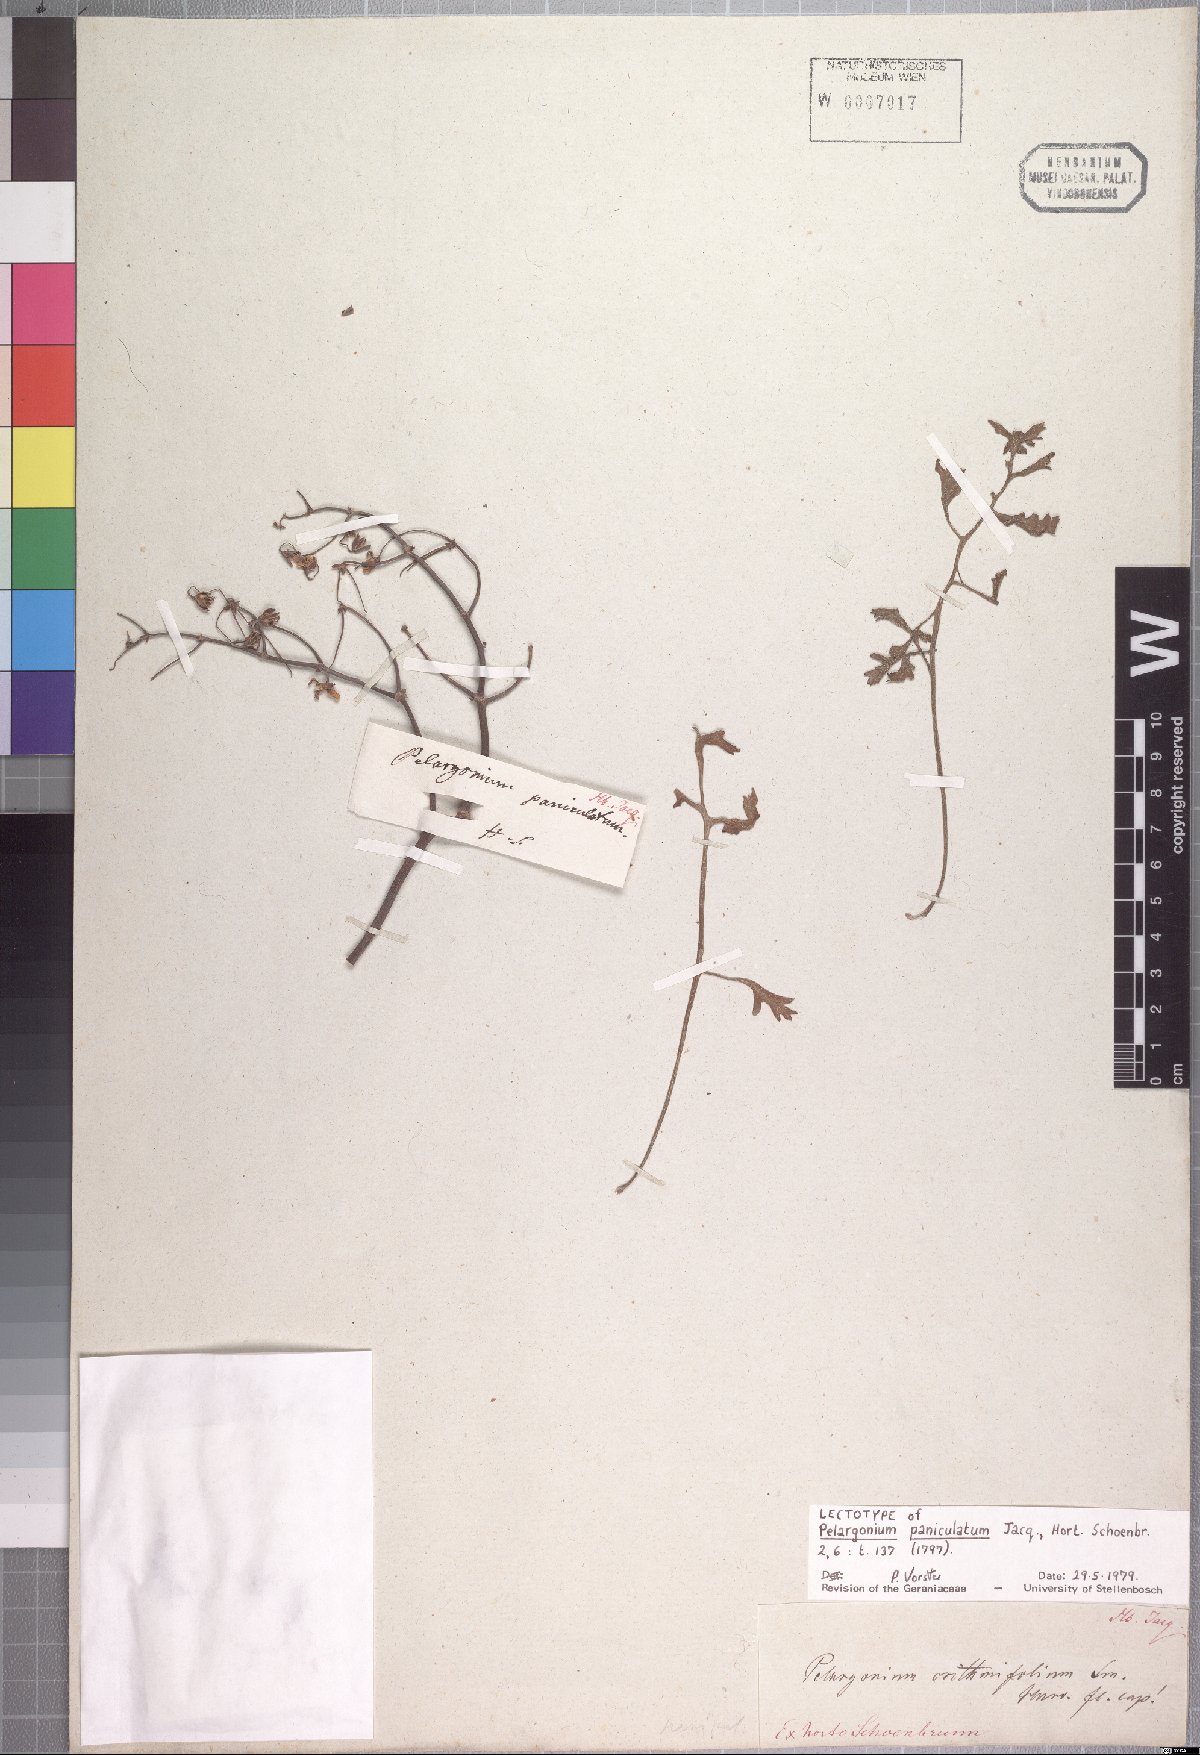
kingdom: Plantae
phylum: Tracheophyta
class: Magnoliopsida
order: Geraniales
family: Geraniaceae
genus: Pelargonium
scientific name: Pelargonium crithmifolium
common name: Samphire-leaf pelargonium
